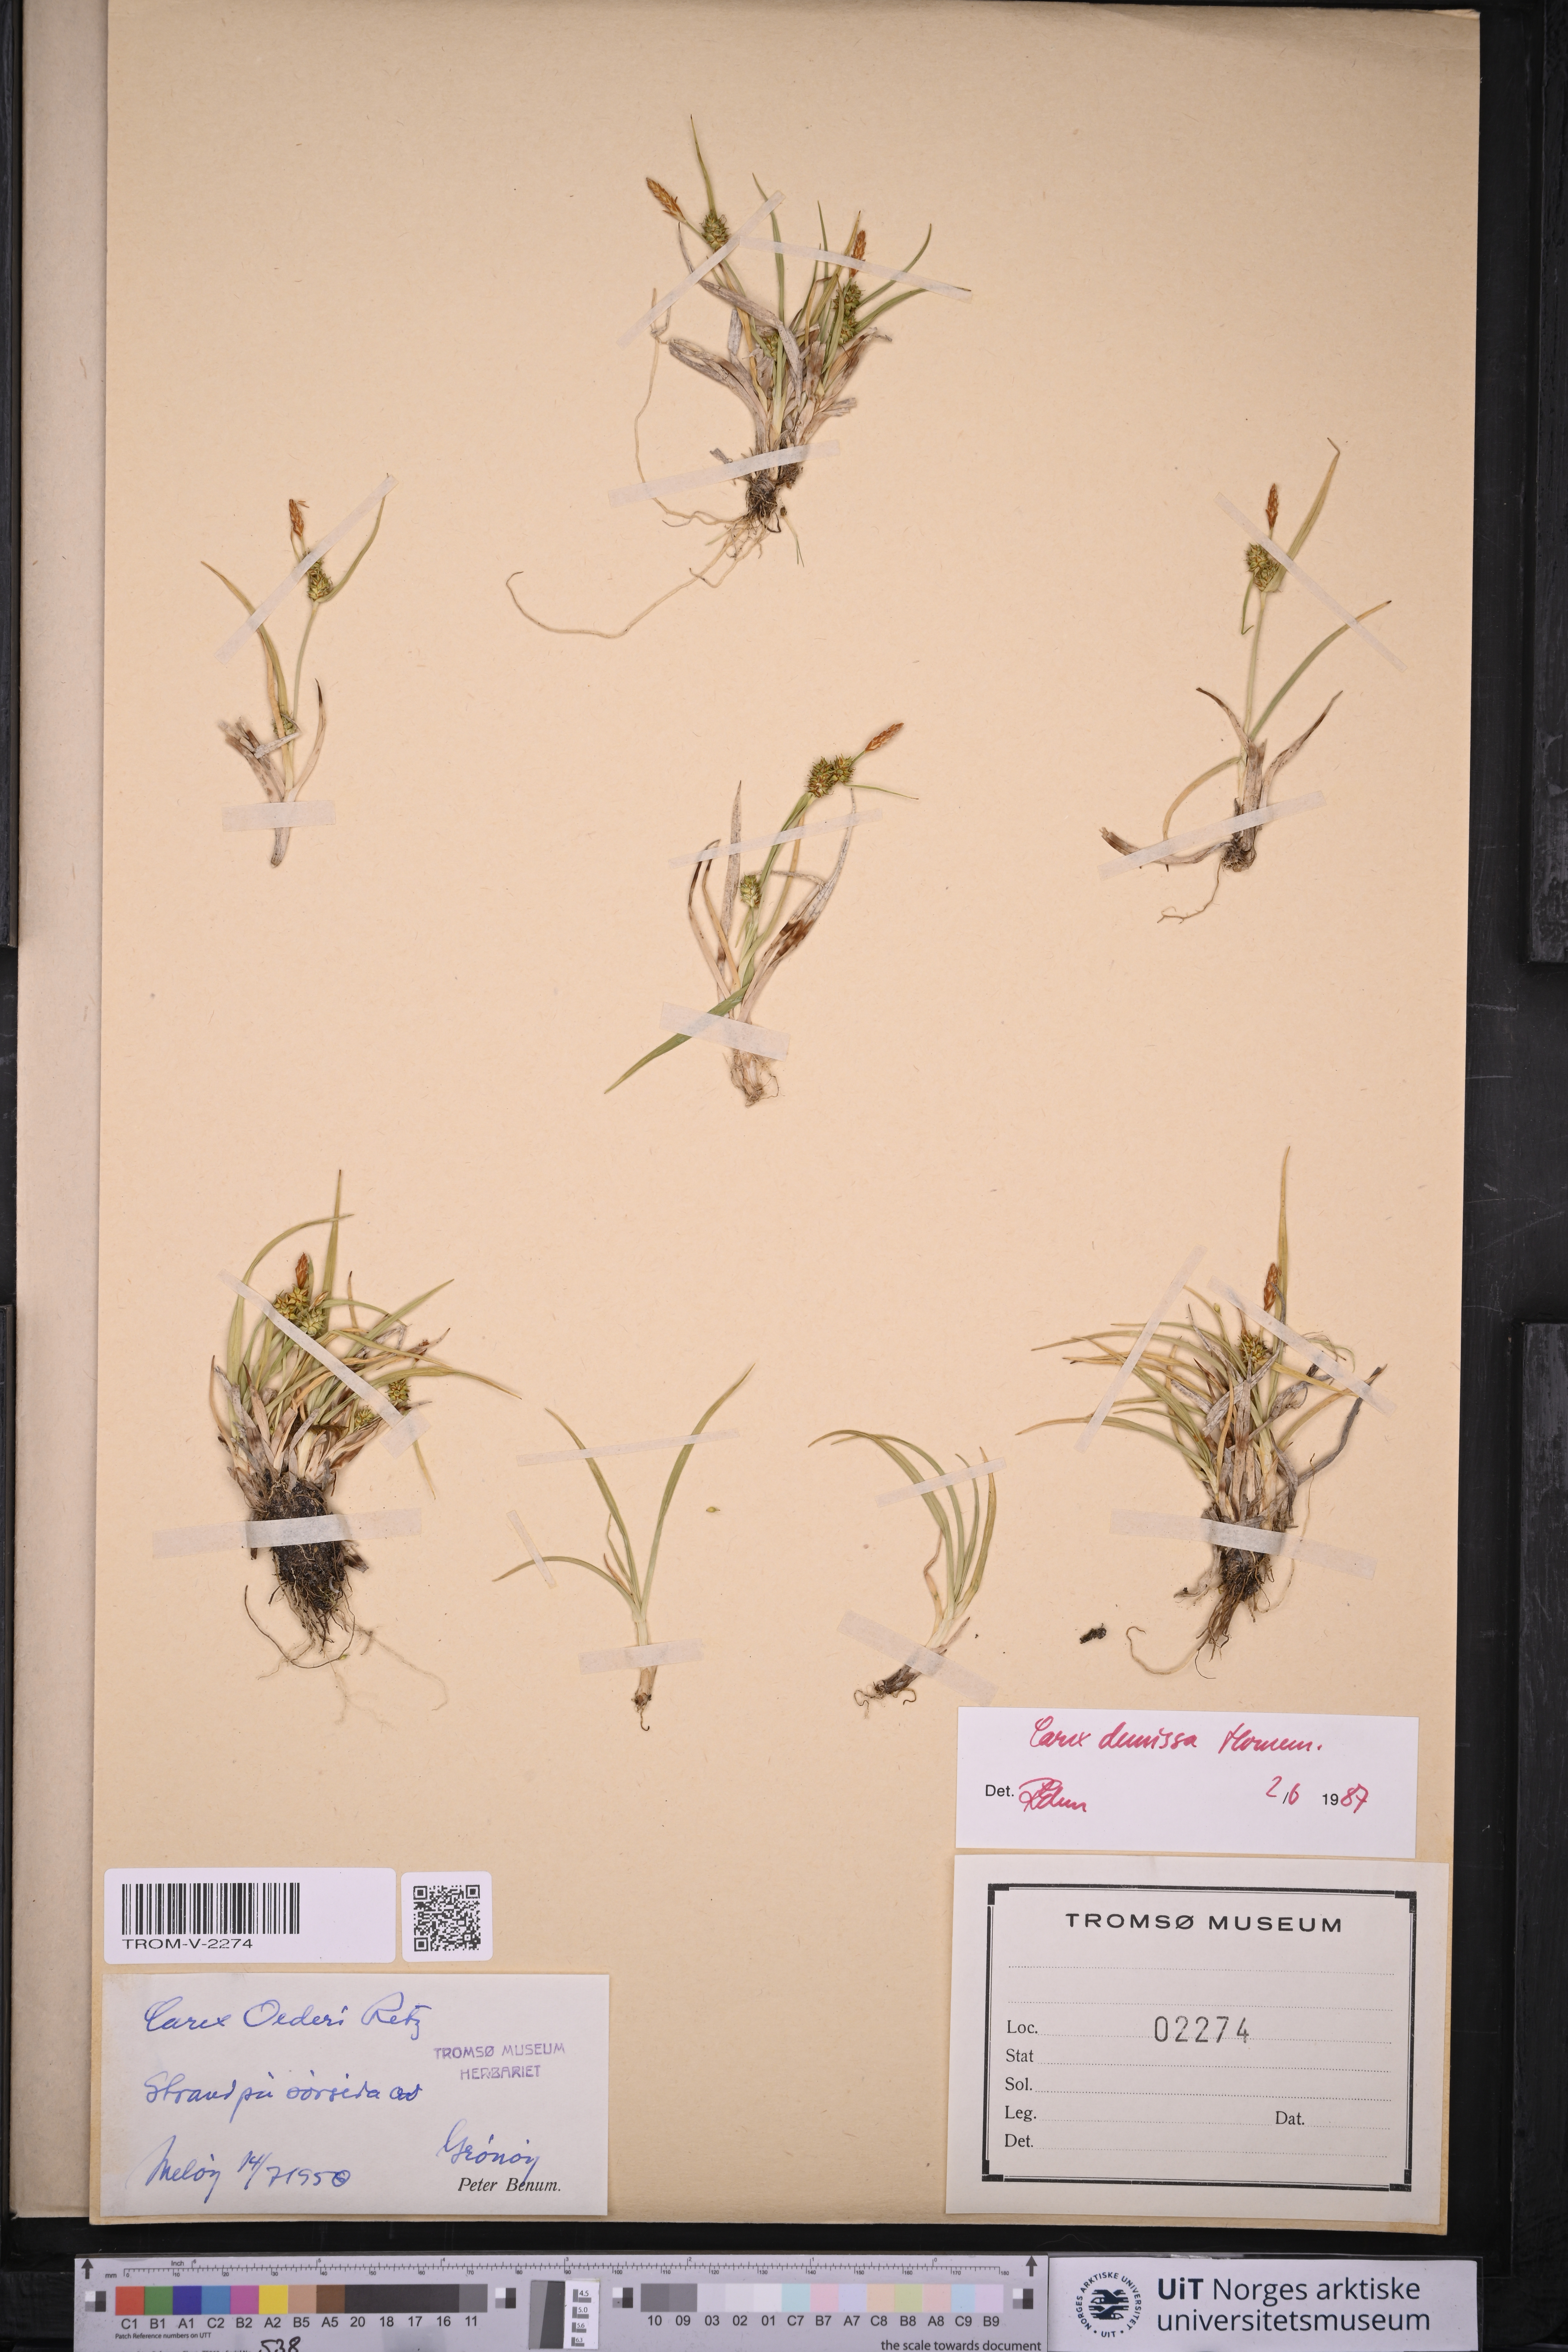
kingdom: Plantae
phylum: Tracheophyta
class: Liliopsida
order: Poales
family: Cyperaceae
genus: Carex
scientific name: Carex demissa
